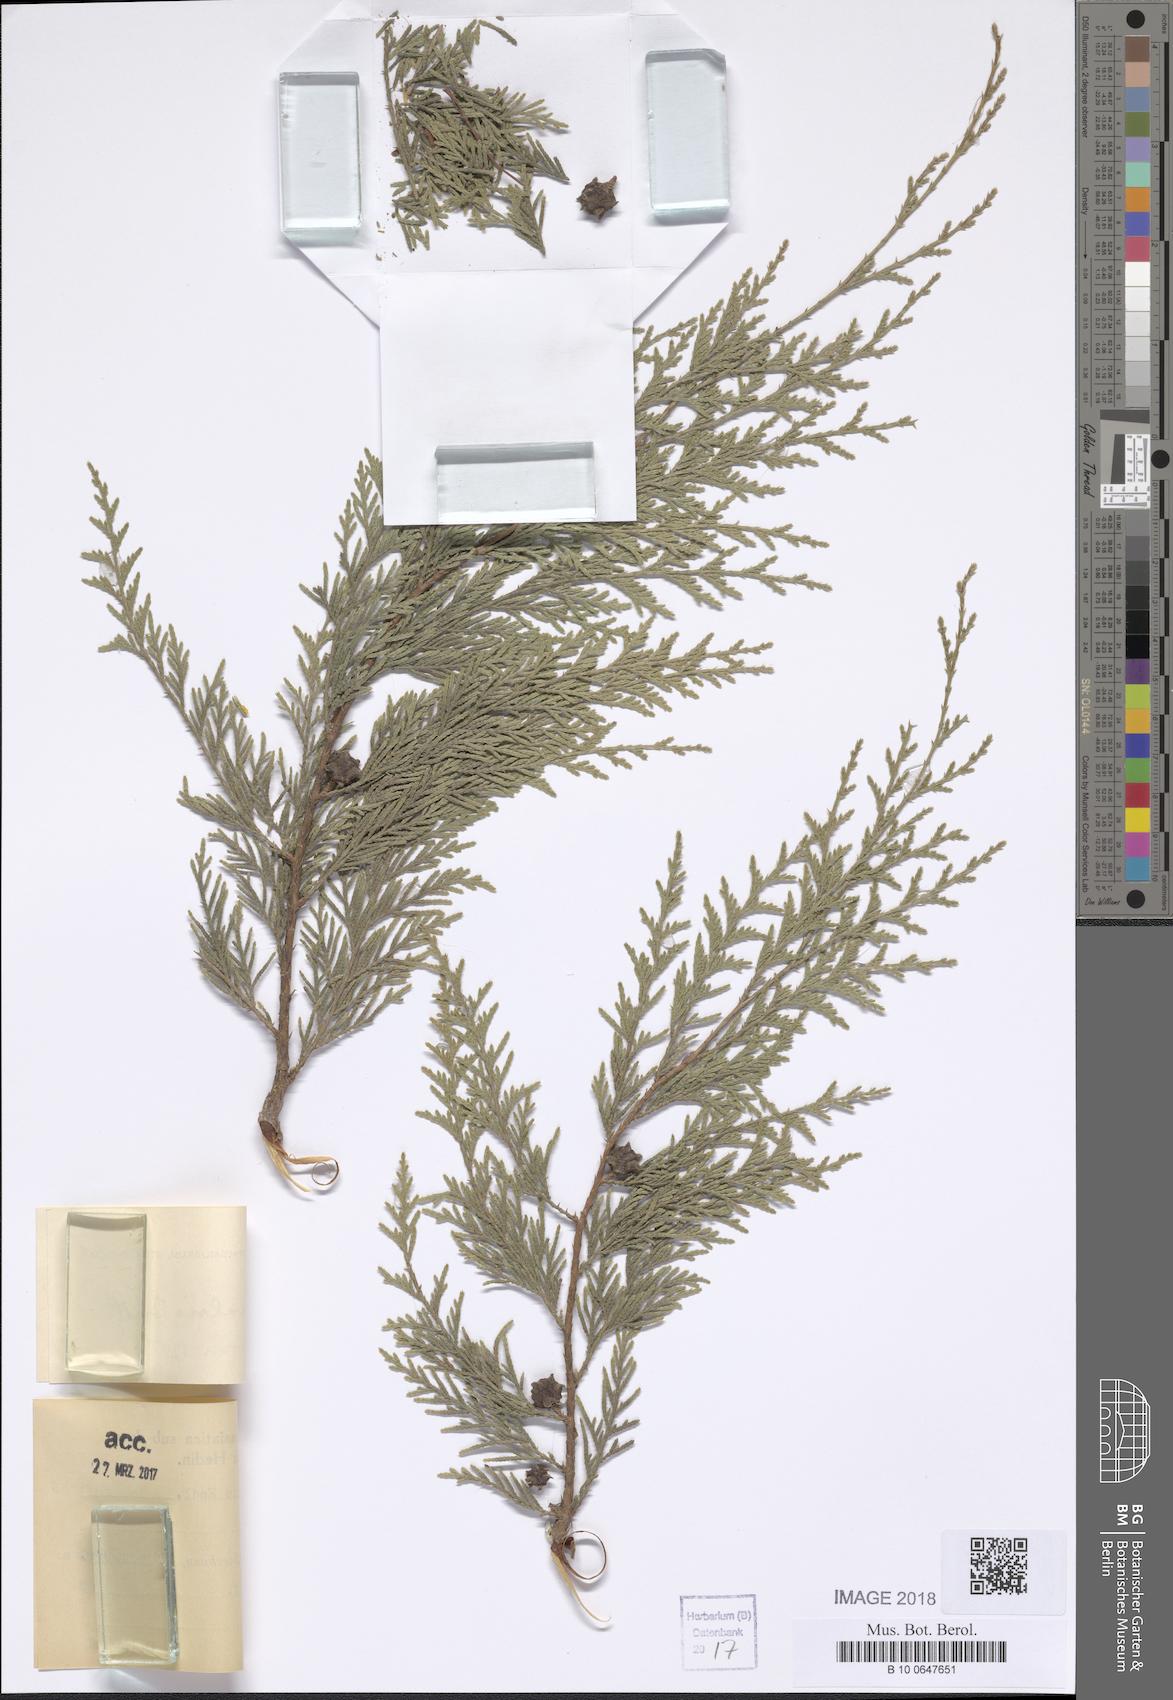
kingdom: Plantae
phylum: Tracheophyta
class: Pinopsida
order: Pinales
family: Cupressaceae
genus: Cupressus
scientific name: Cupressus funebris
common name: Chinese weeping cypress
